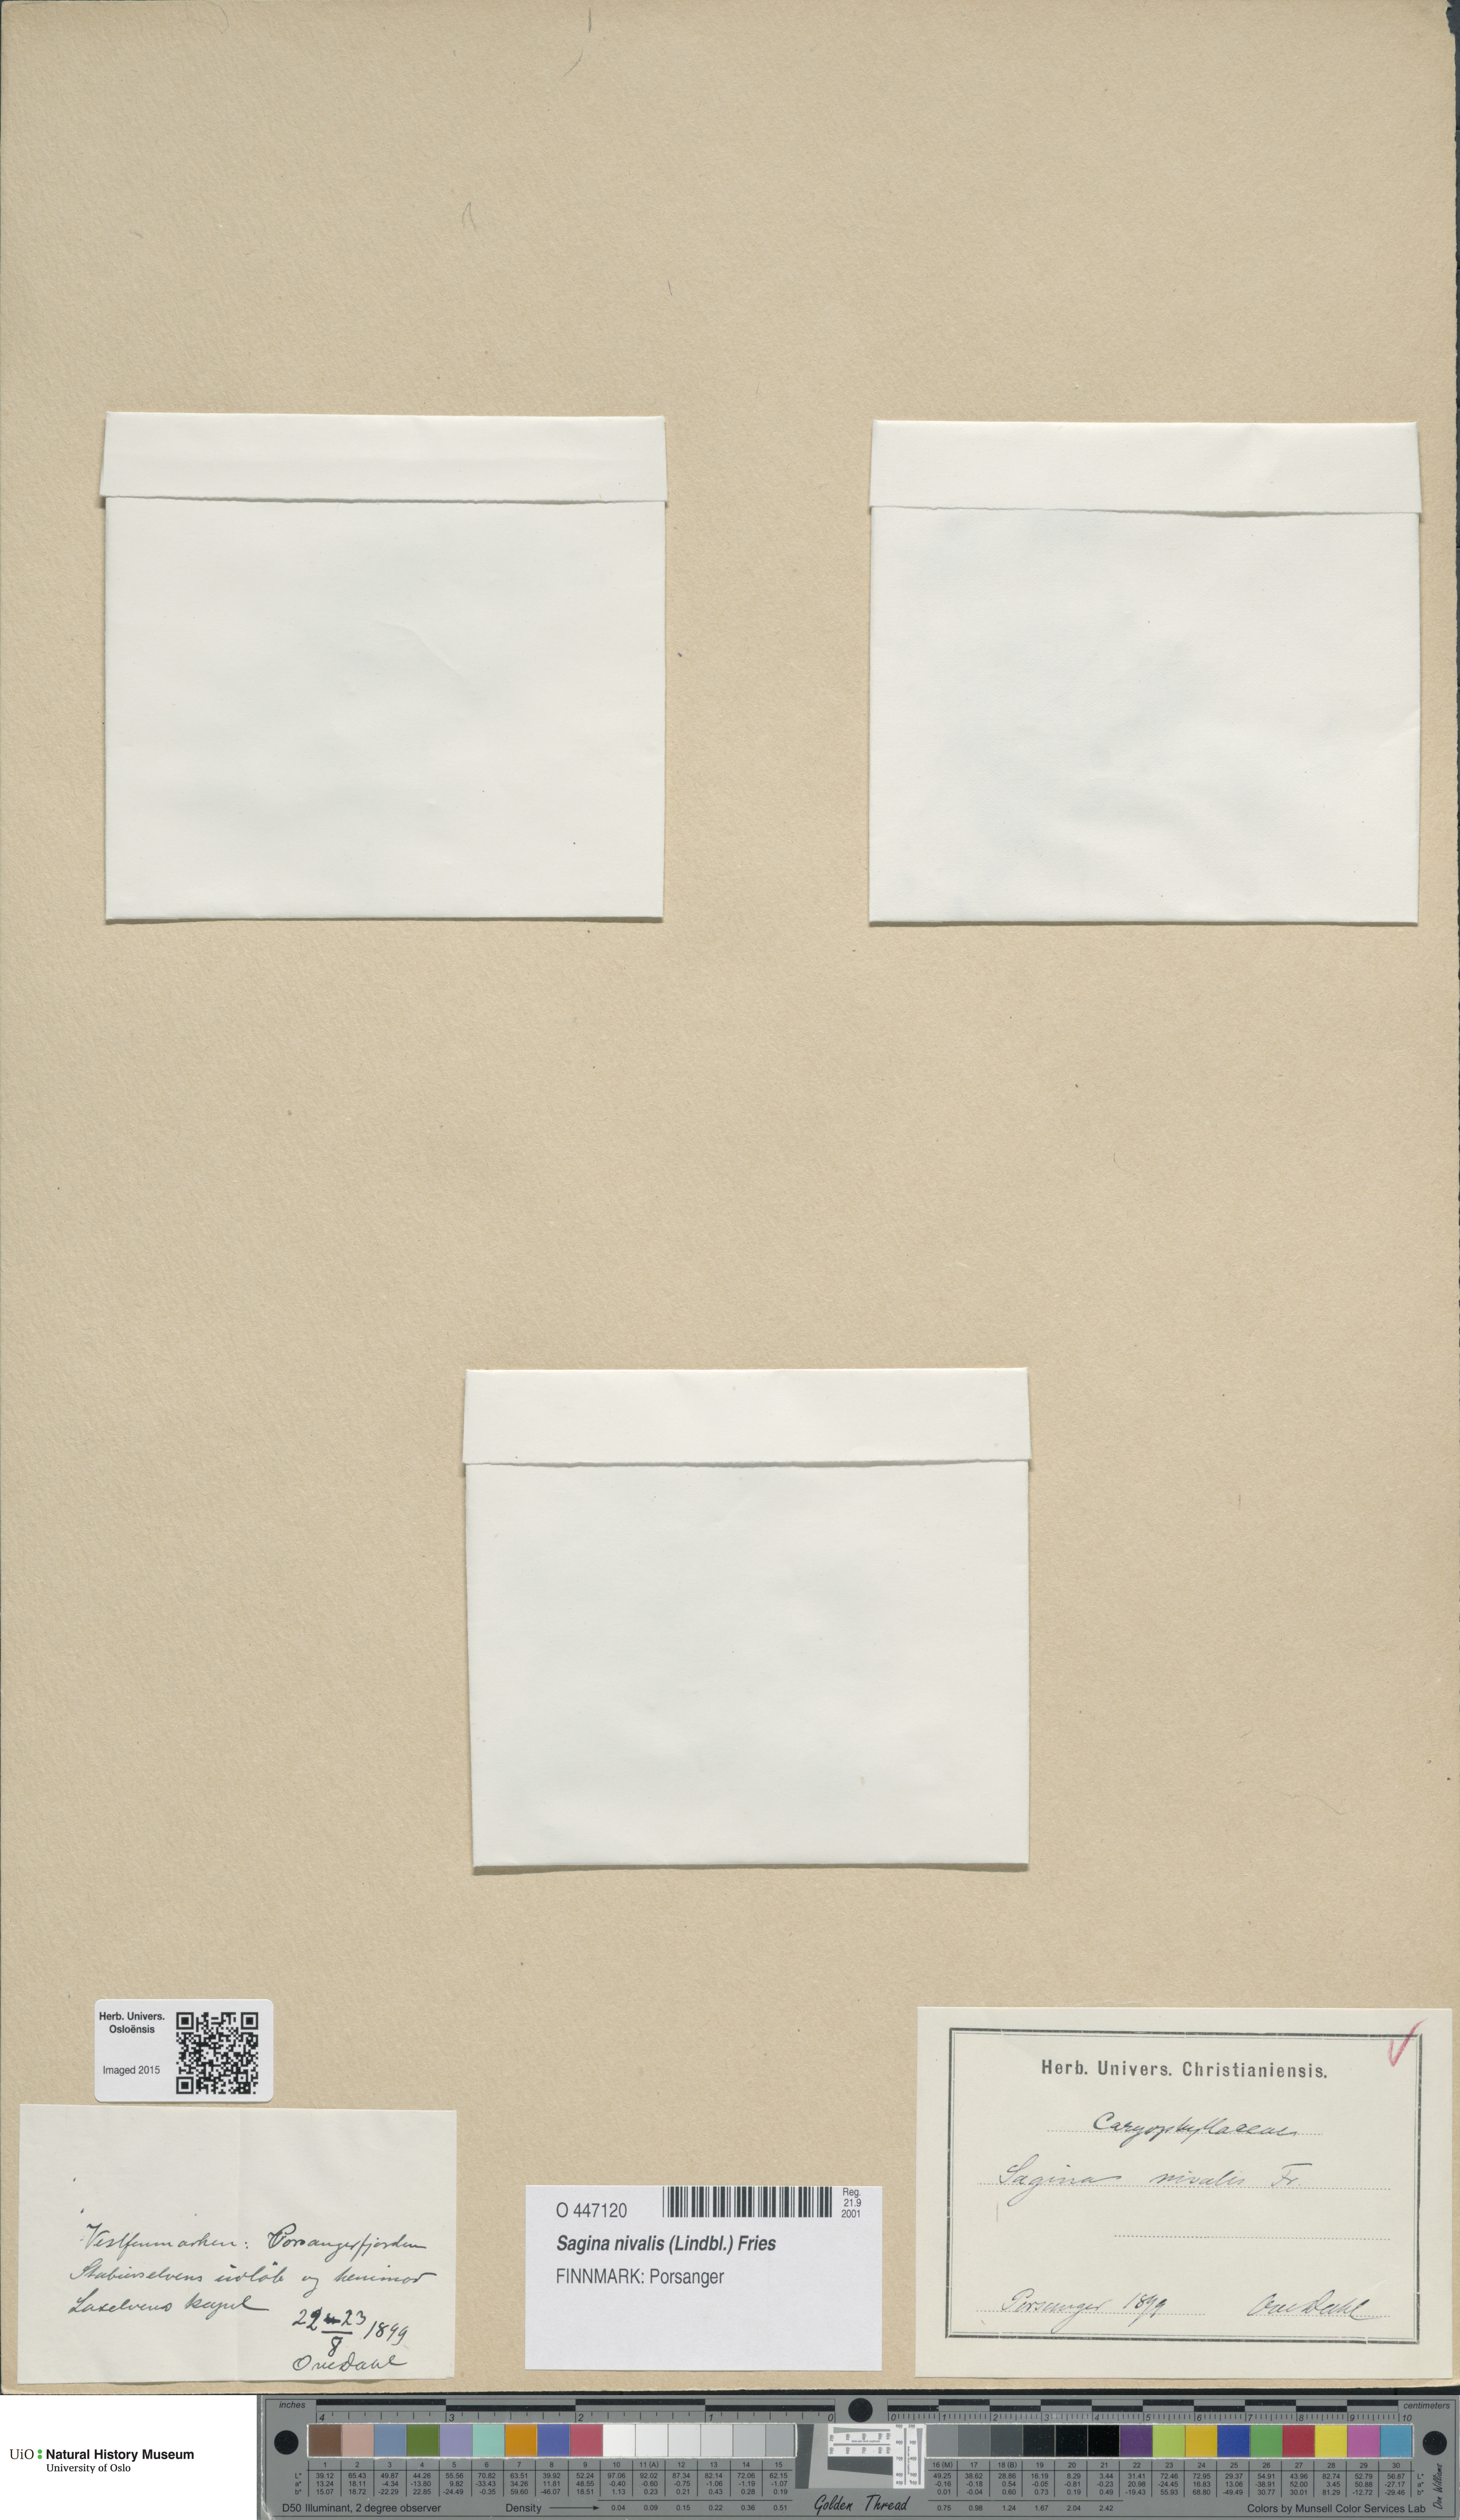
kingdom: Plantae
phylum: Tracheophyta
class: Magnoliopsida
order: Caryophyllales
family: Caryophyllaceae
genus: Sagina
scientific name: Sagina nivalis
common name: Snow pearlwort
